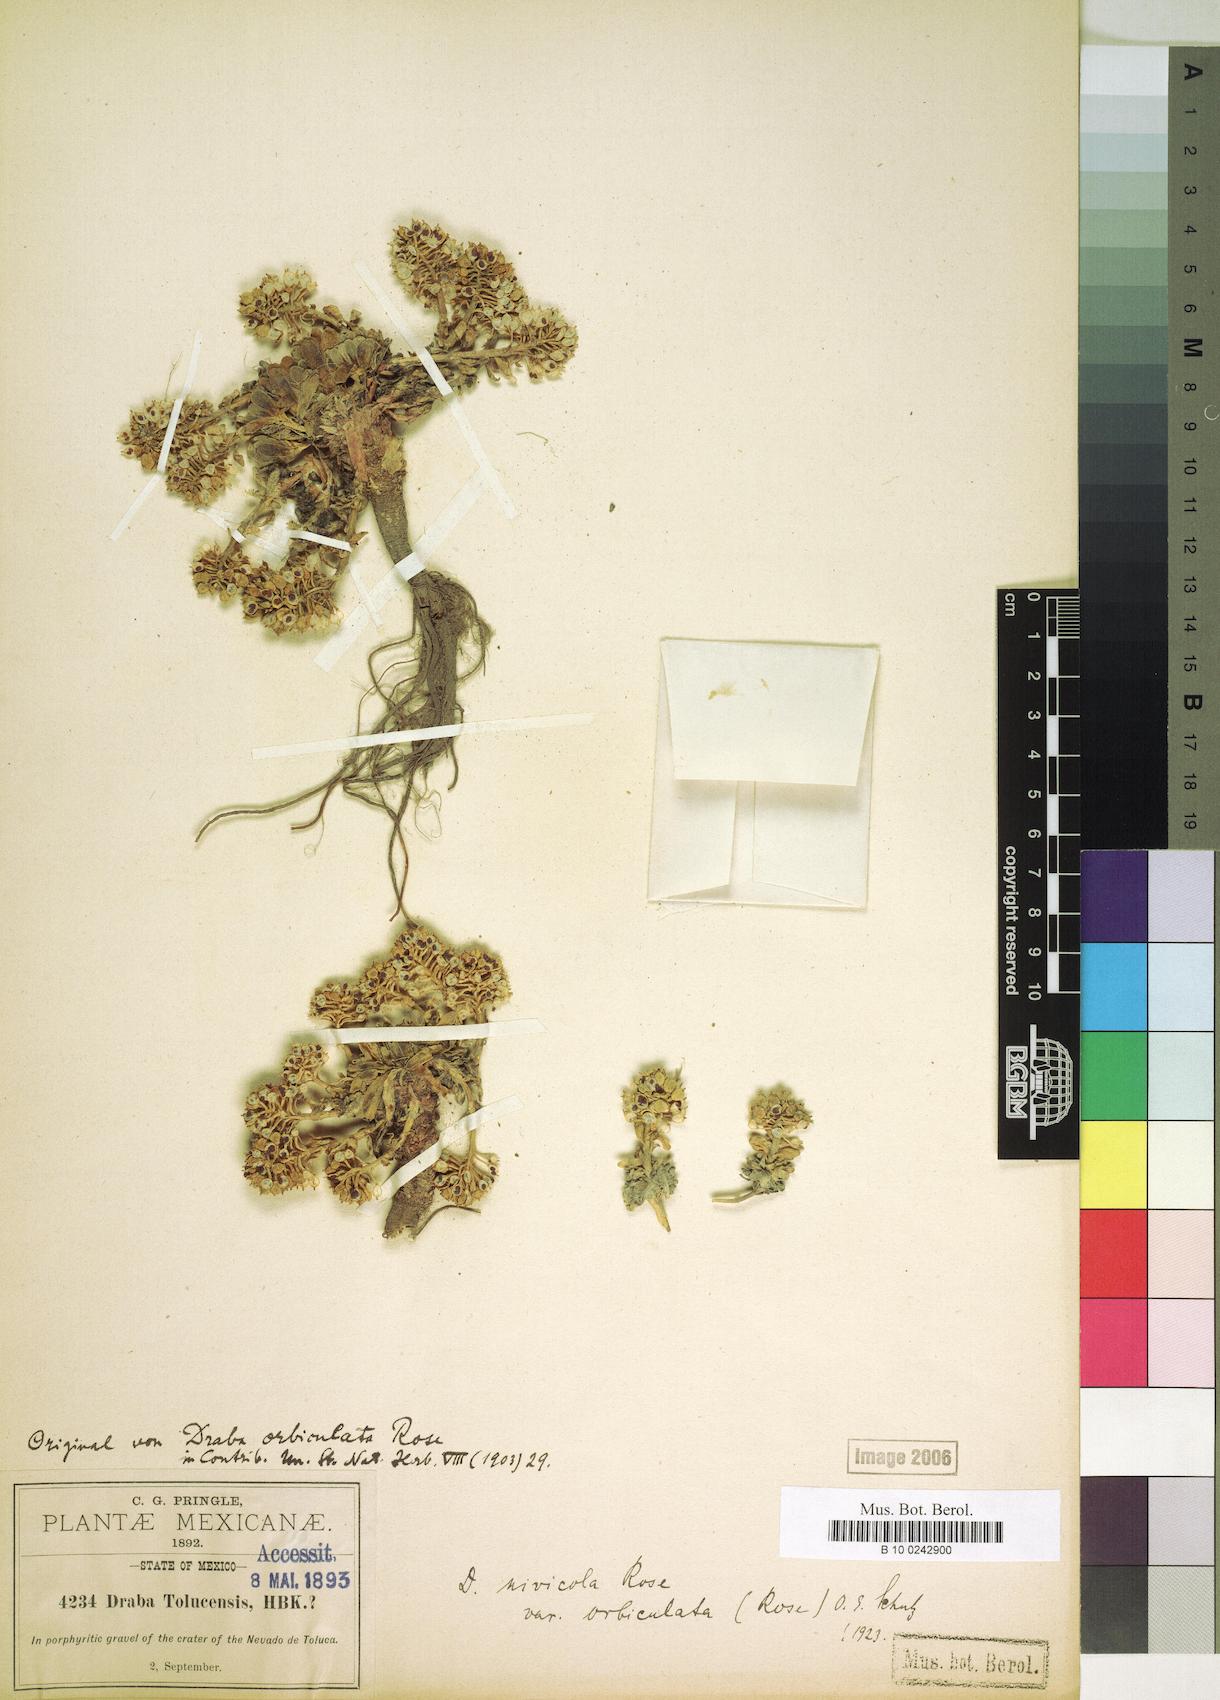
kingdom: Plantae
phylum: Tracheophyta
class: Magnoliopsida
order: Brassicales
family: Brassicaceae
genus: Draba
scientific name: Draba nivicola
